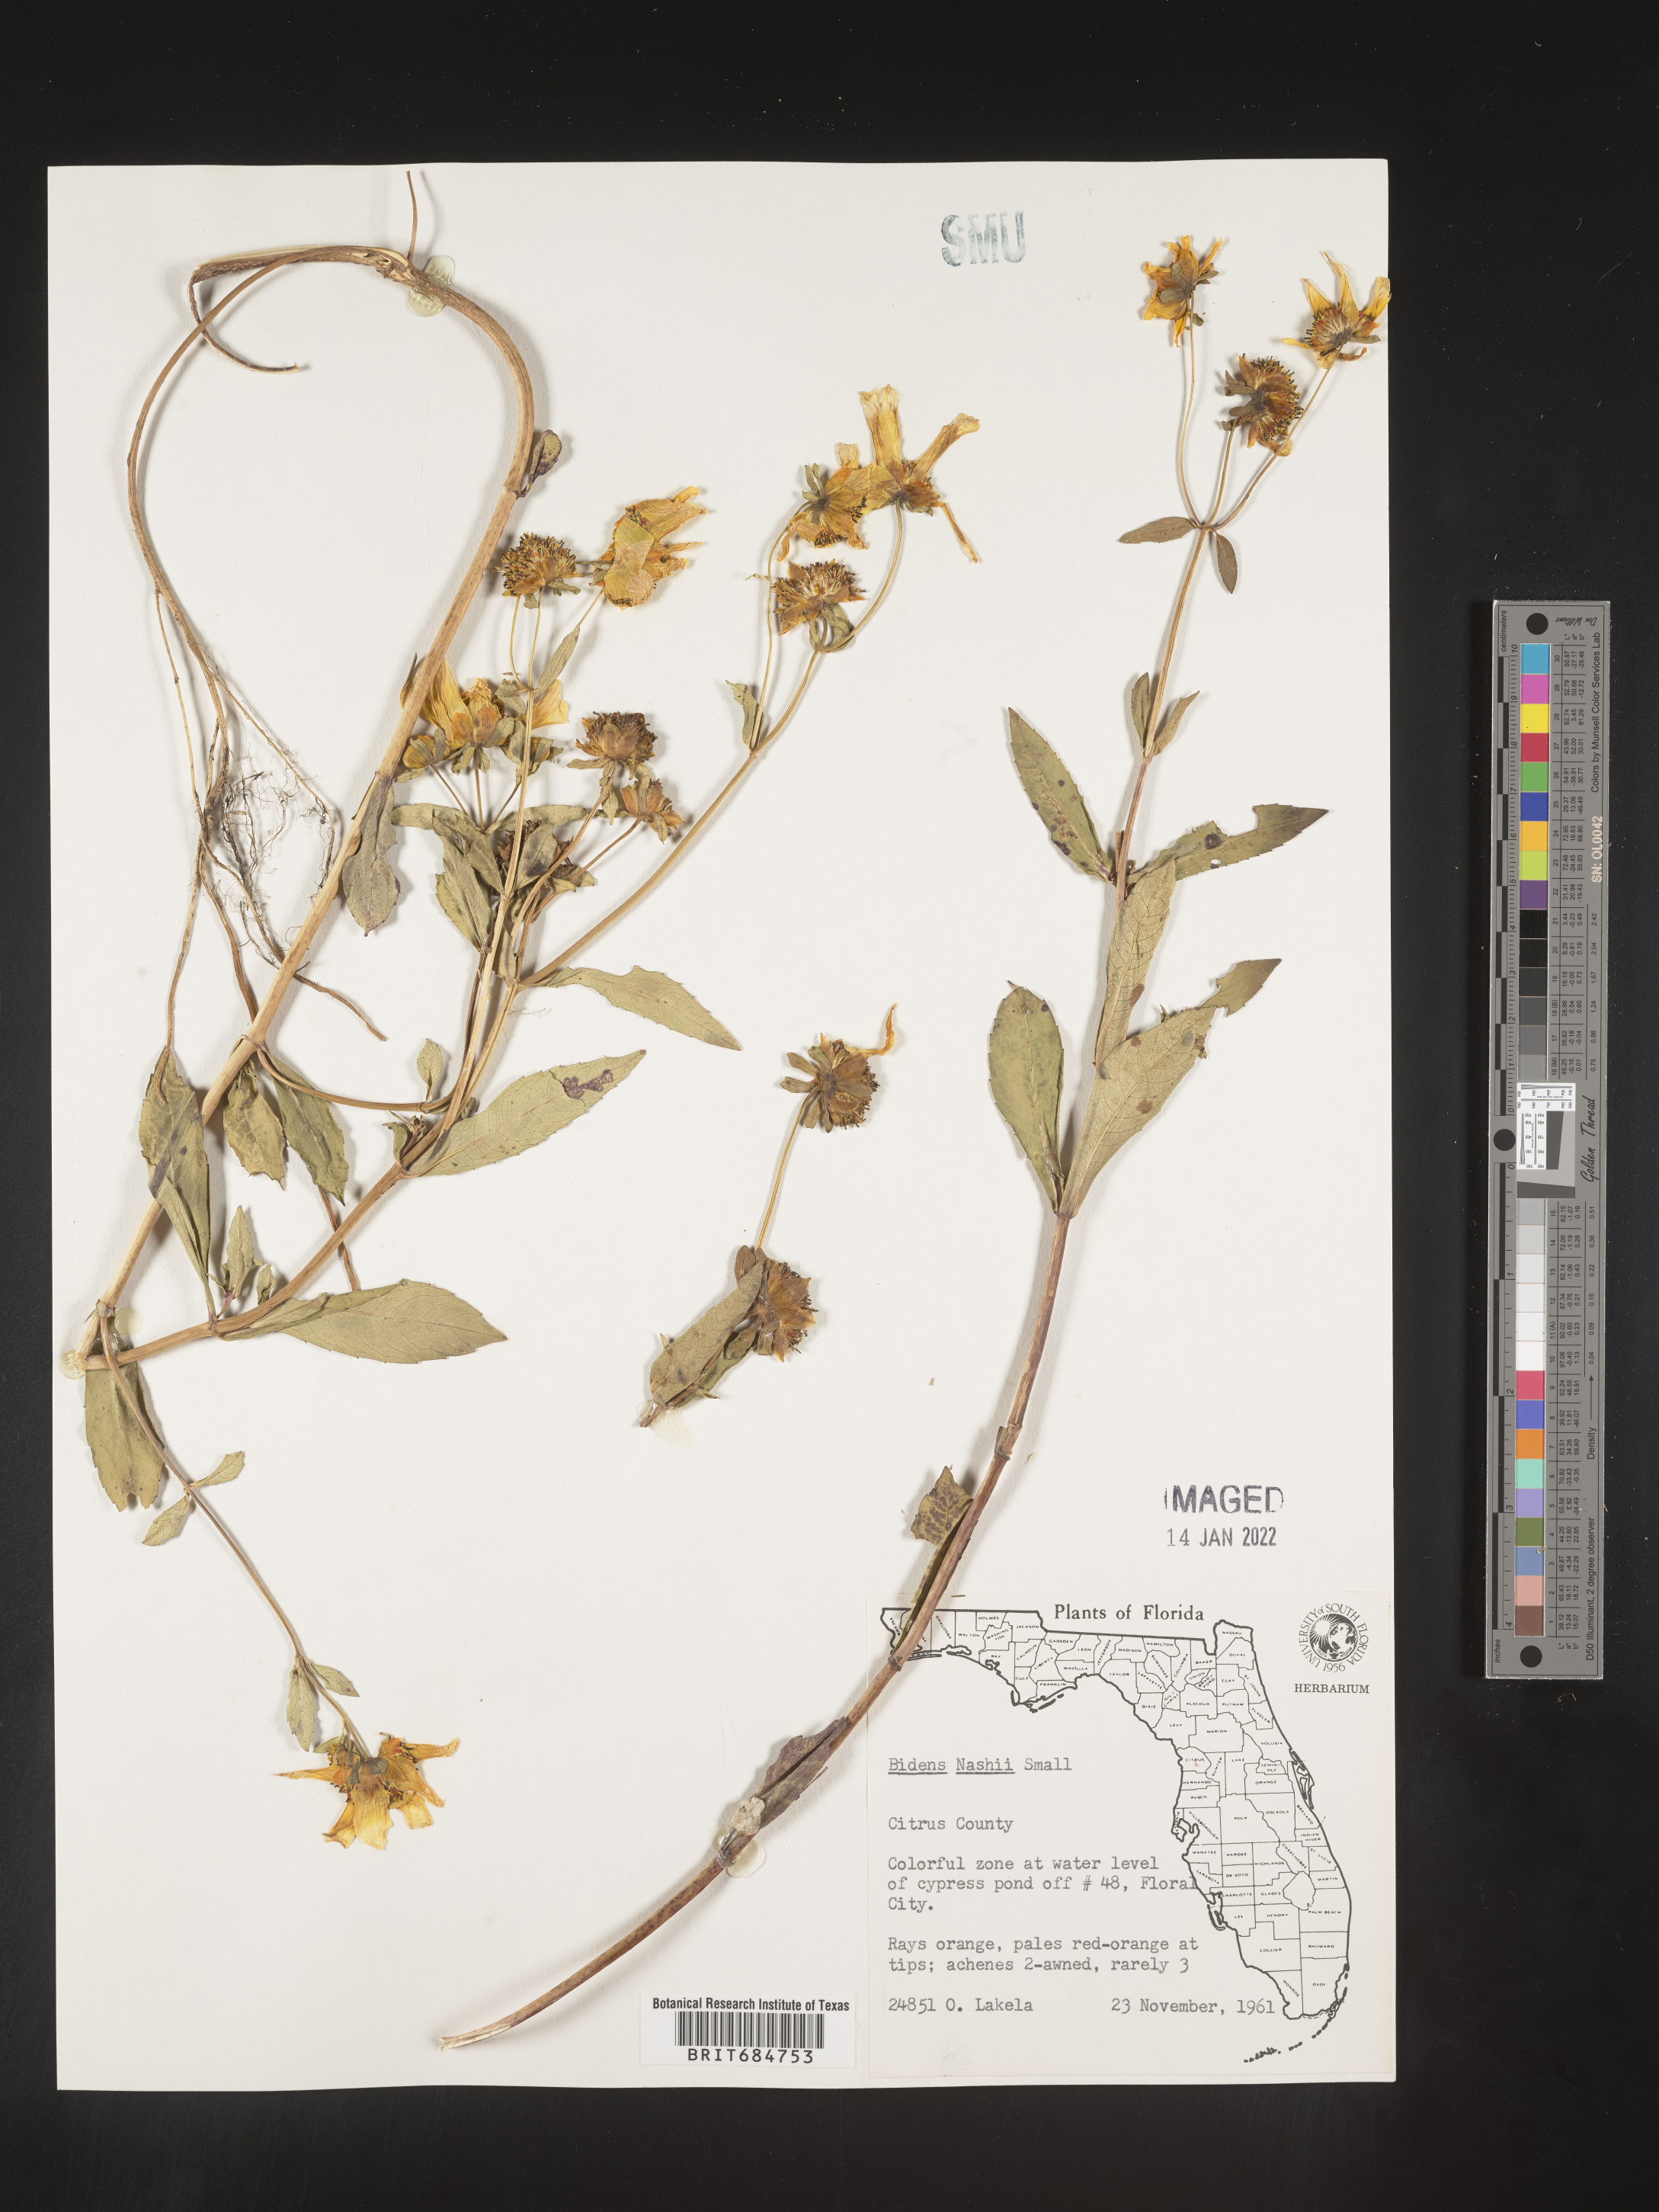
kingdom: Plantae
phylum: Tracheophyta
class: Magnoliopsida
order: Asterales
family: Asteraceae
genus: Bidens
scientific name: Bidens laevis
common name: Larger bur-marigold
